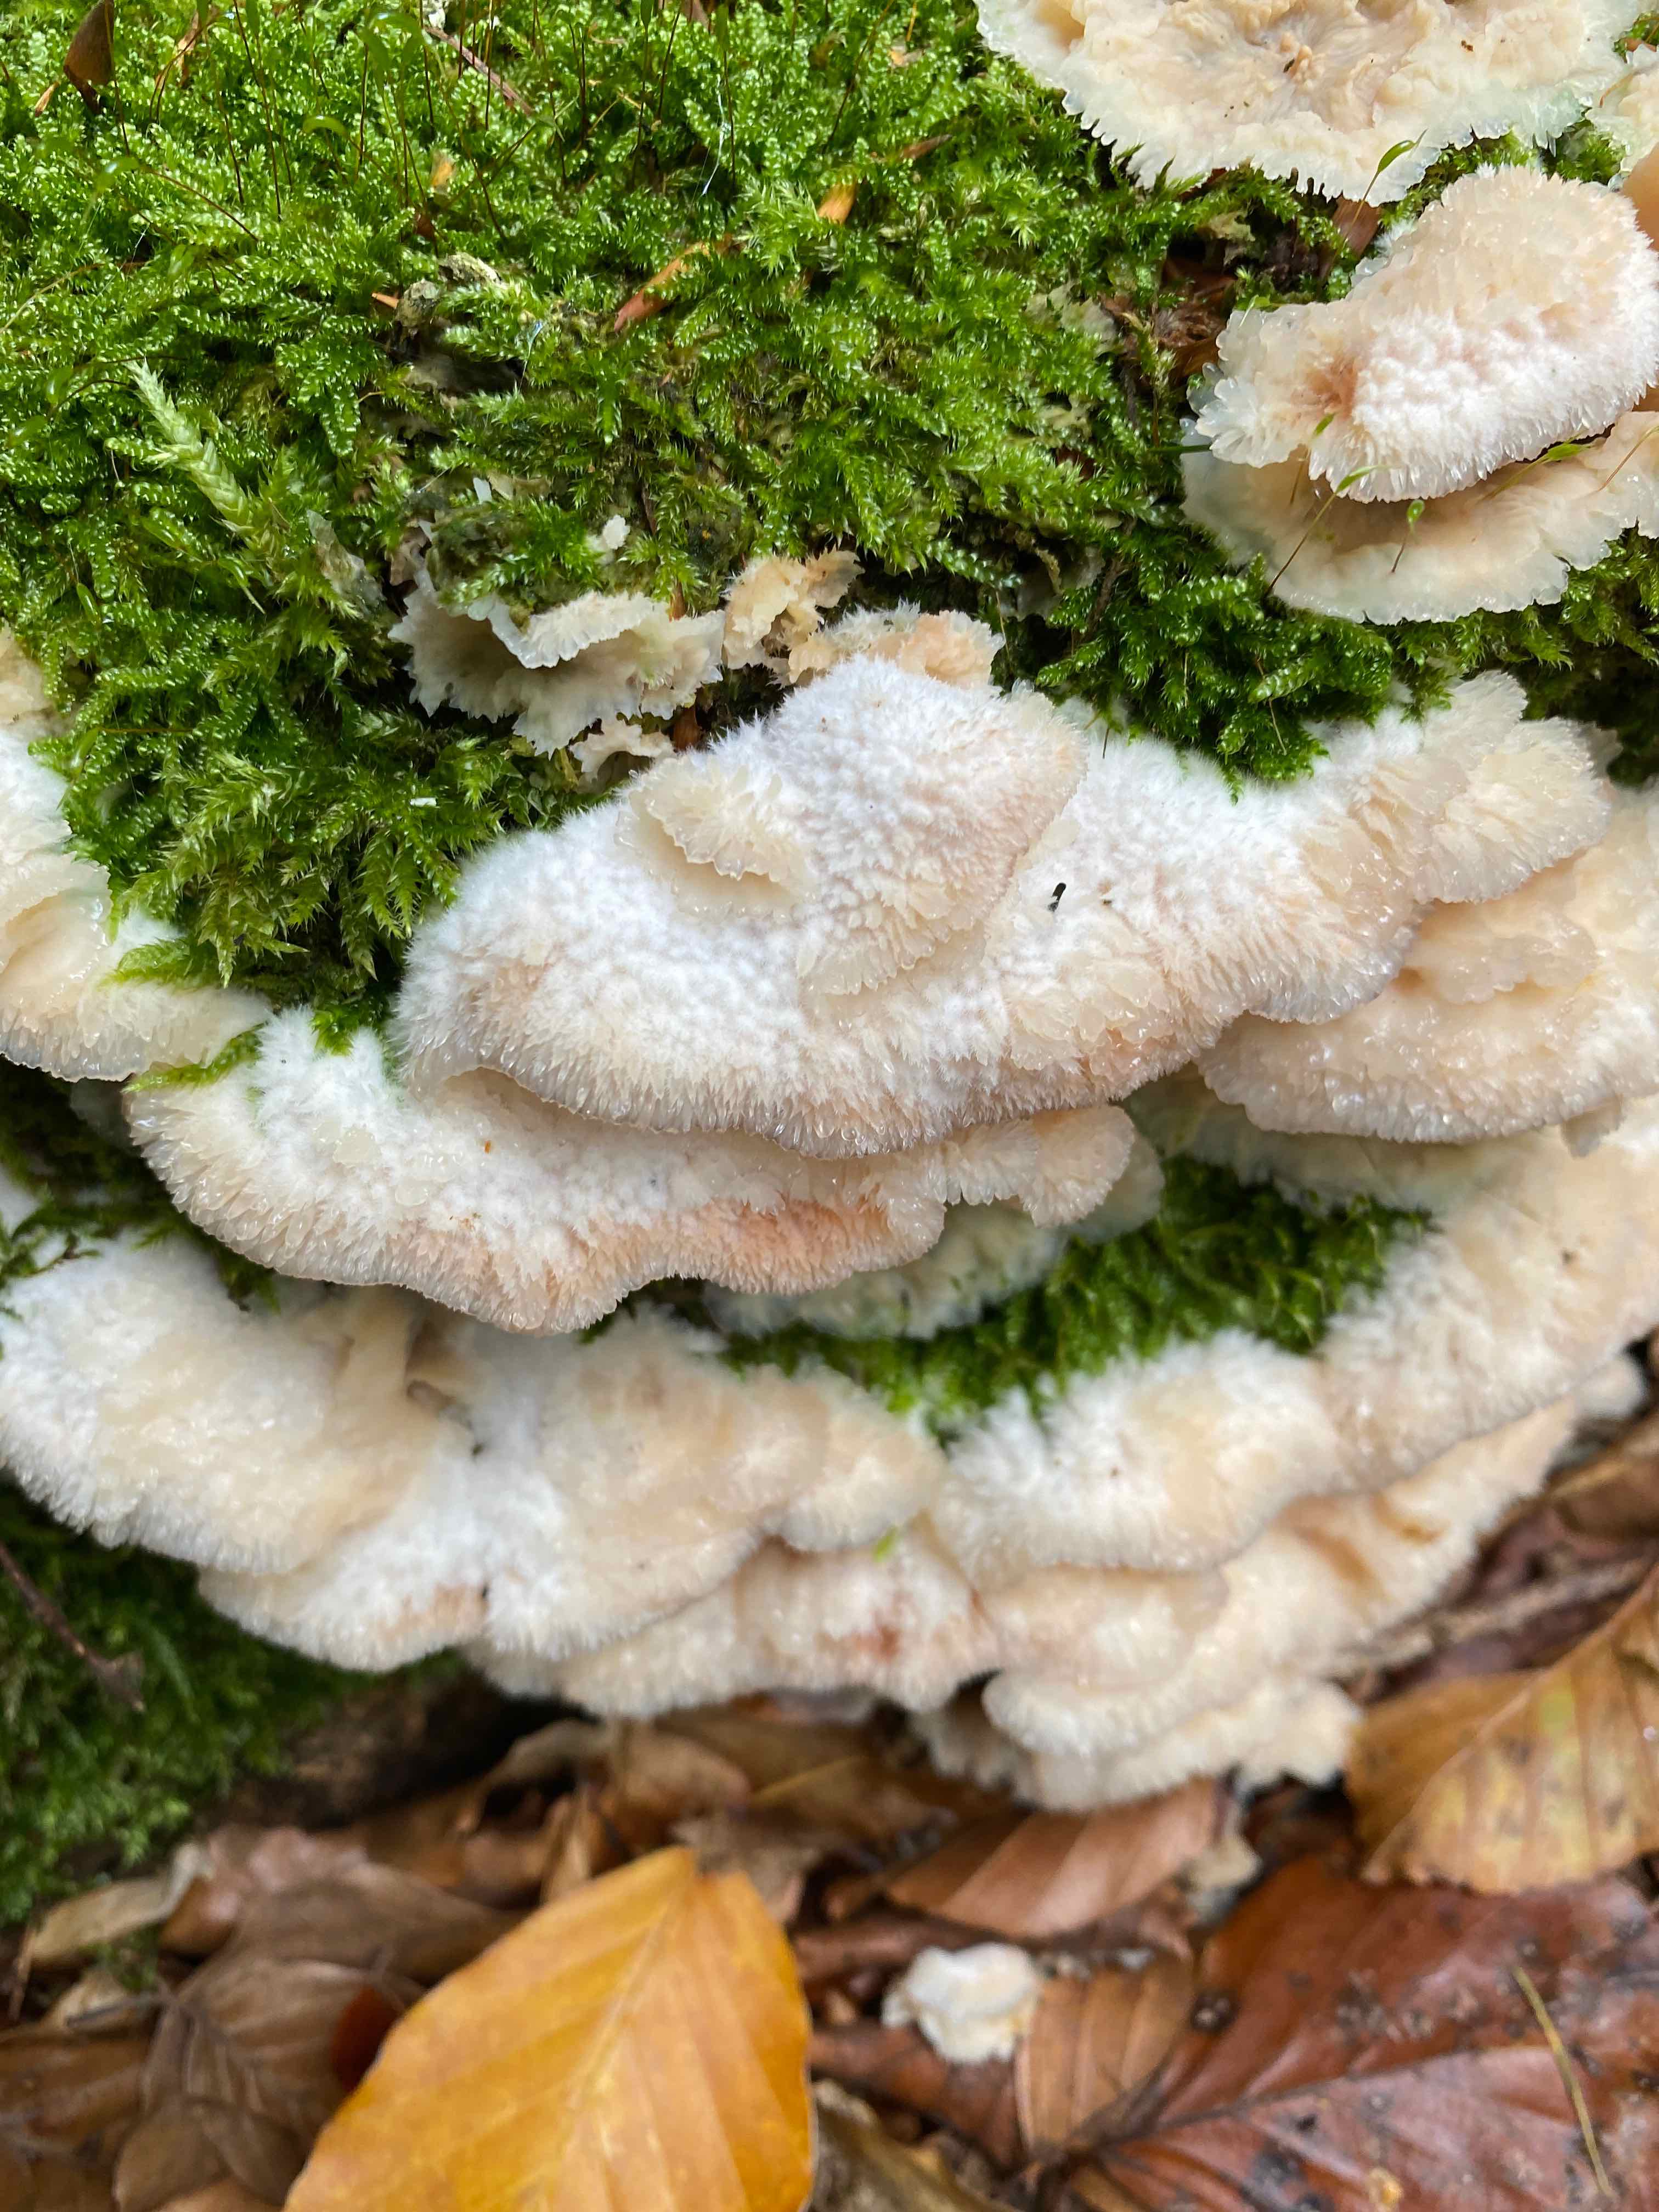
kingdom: Fungi
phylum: Basidiomycota
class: Agaricomycetes
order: Polyporales
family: Meruliaceae
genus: Phlebia
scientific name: Phlebia tremellosa
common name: bævrende åresvamp
